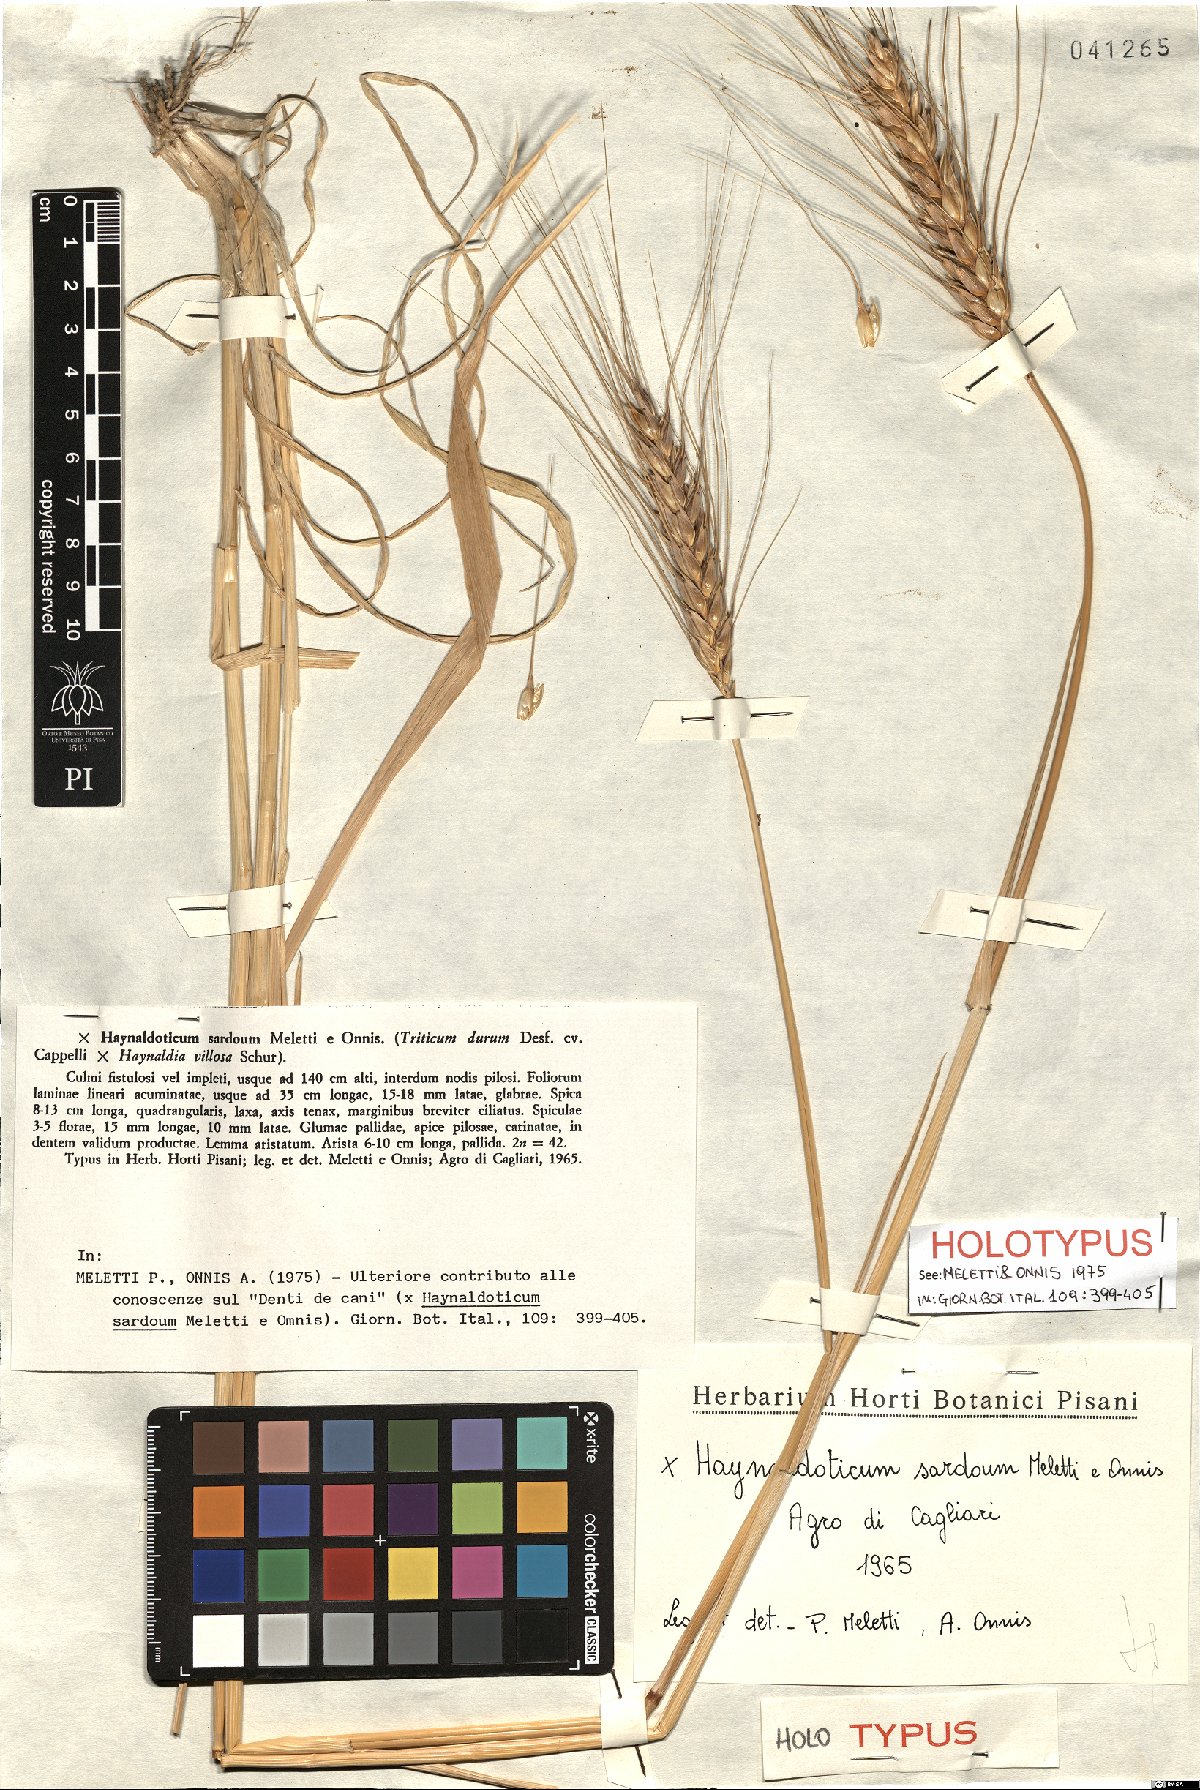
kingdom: Plantae
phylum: Tracheophyta
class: Liliopsida
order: Poales
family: Poaceae
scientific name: Poaceae
